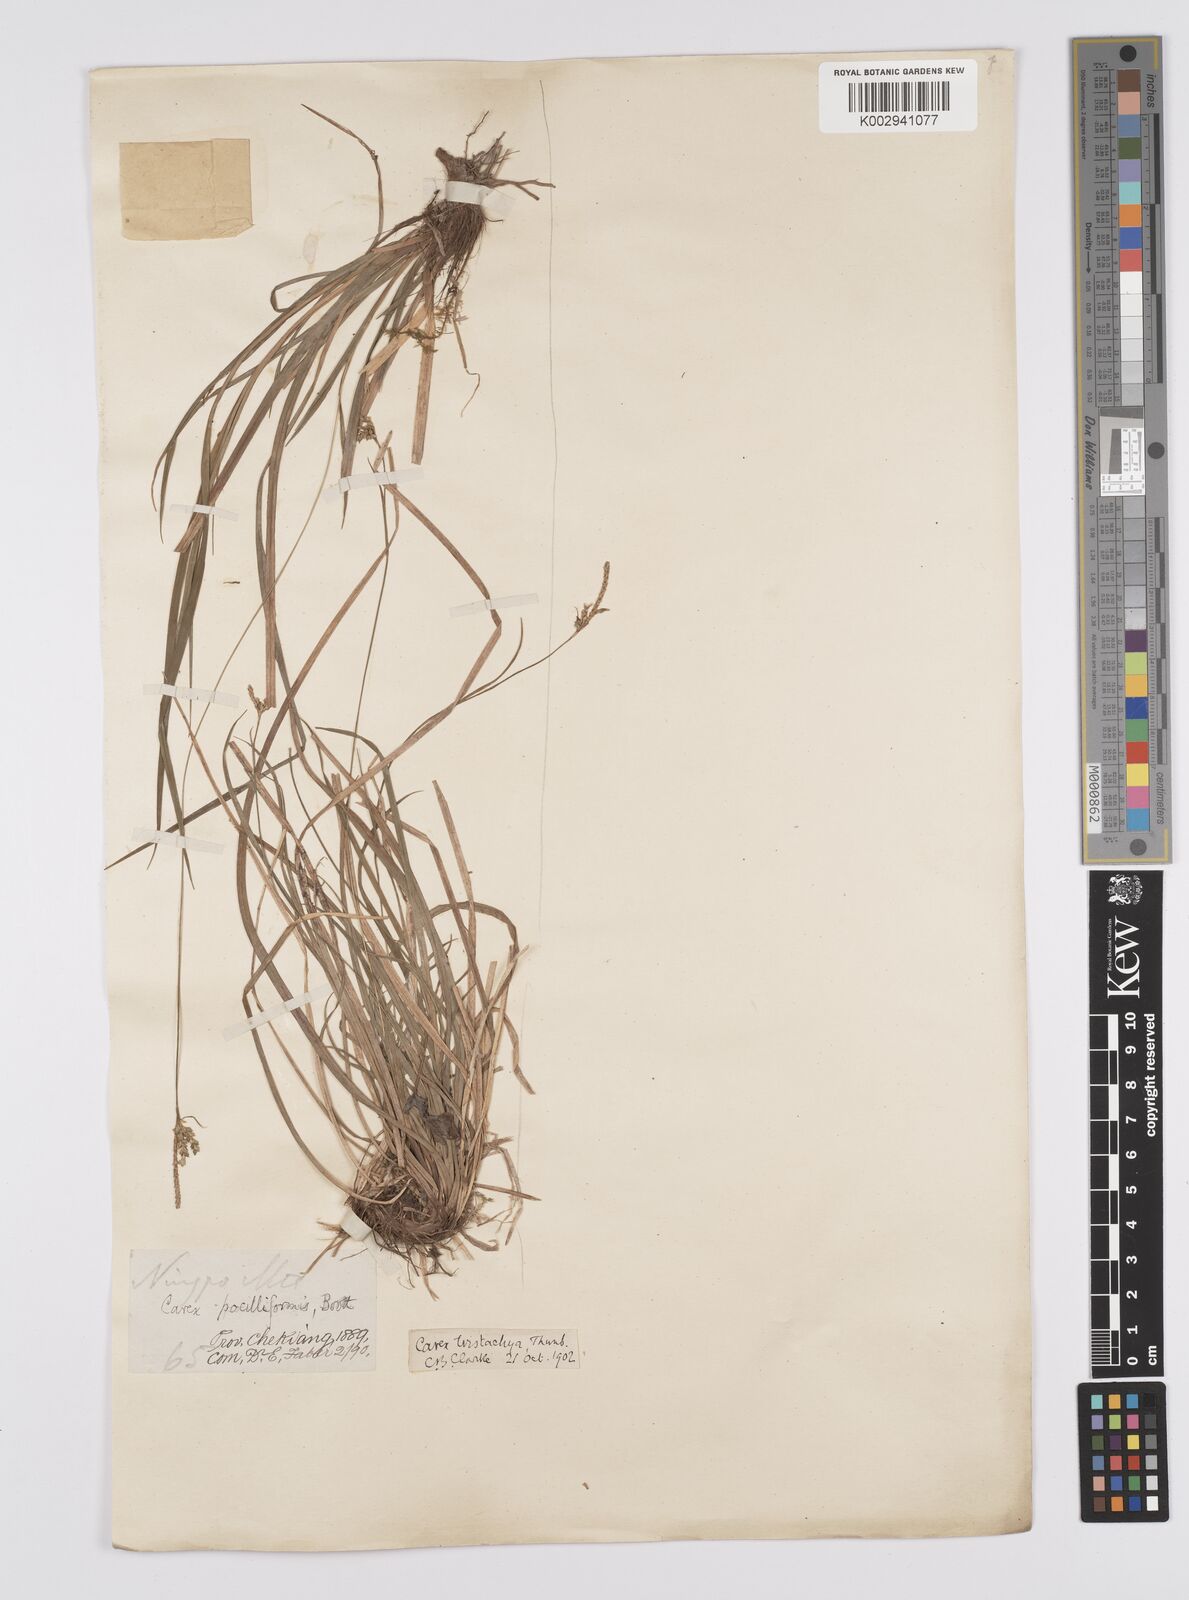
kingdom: Plantae
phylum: Tracheophyta
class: Liliopsida
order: Poales
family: Cyperaceae
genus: Carex
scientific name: Carex tristachya
